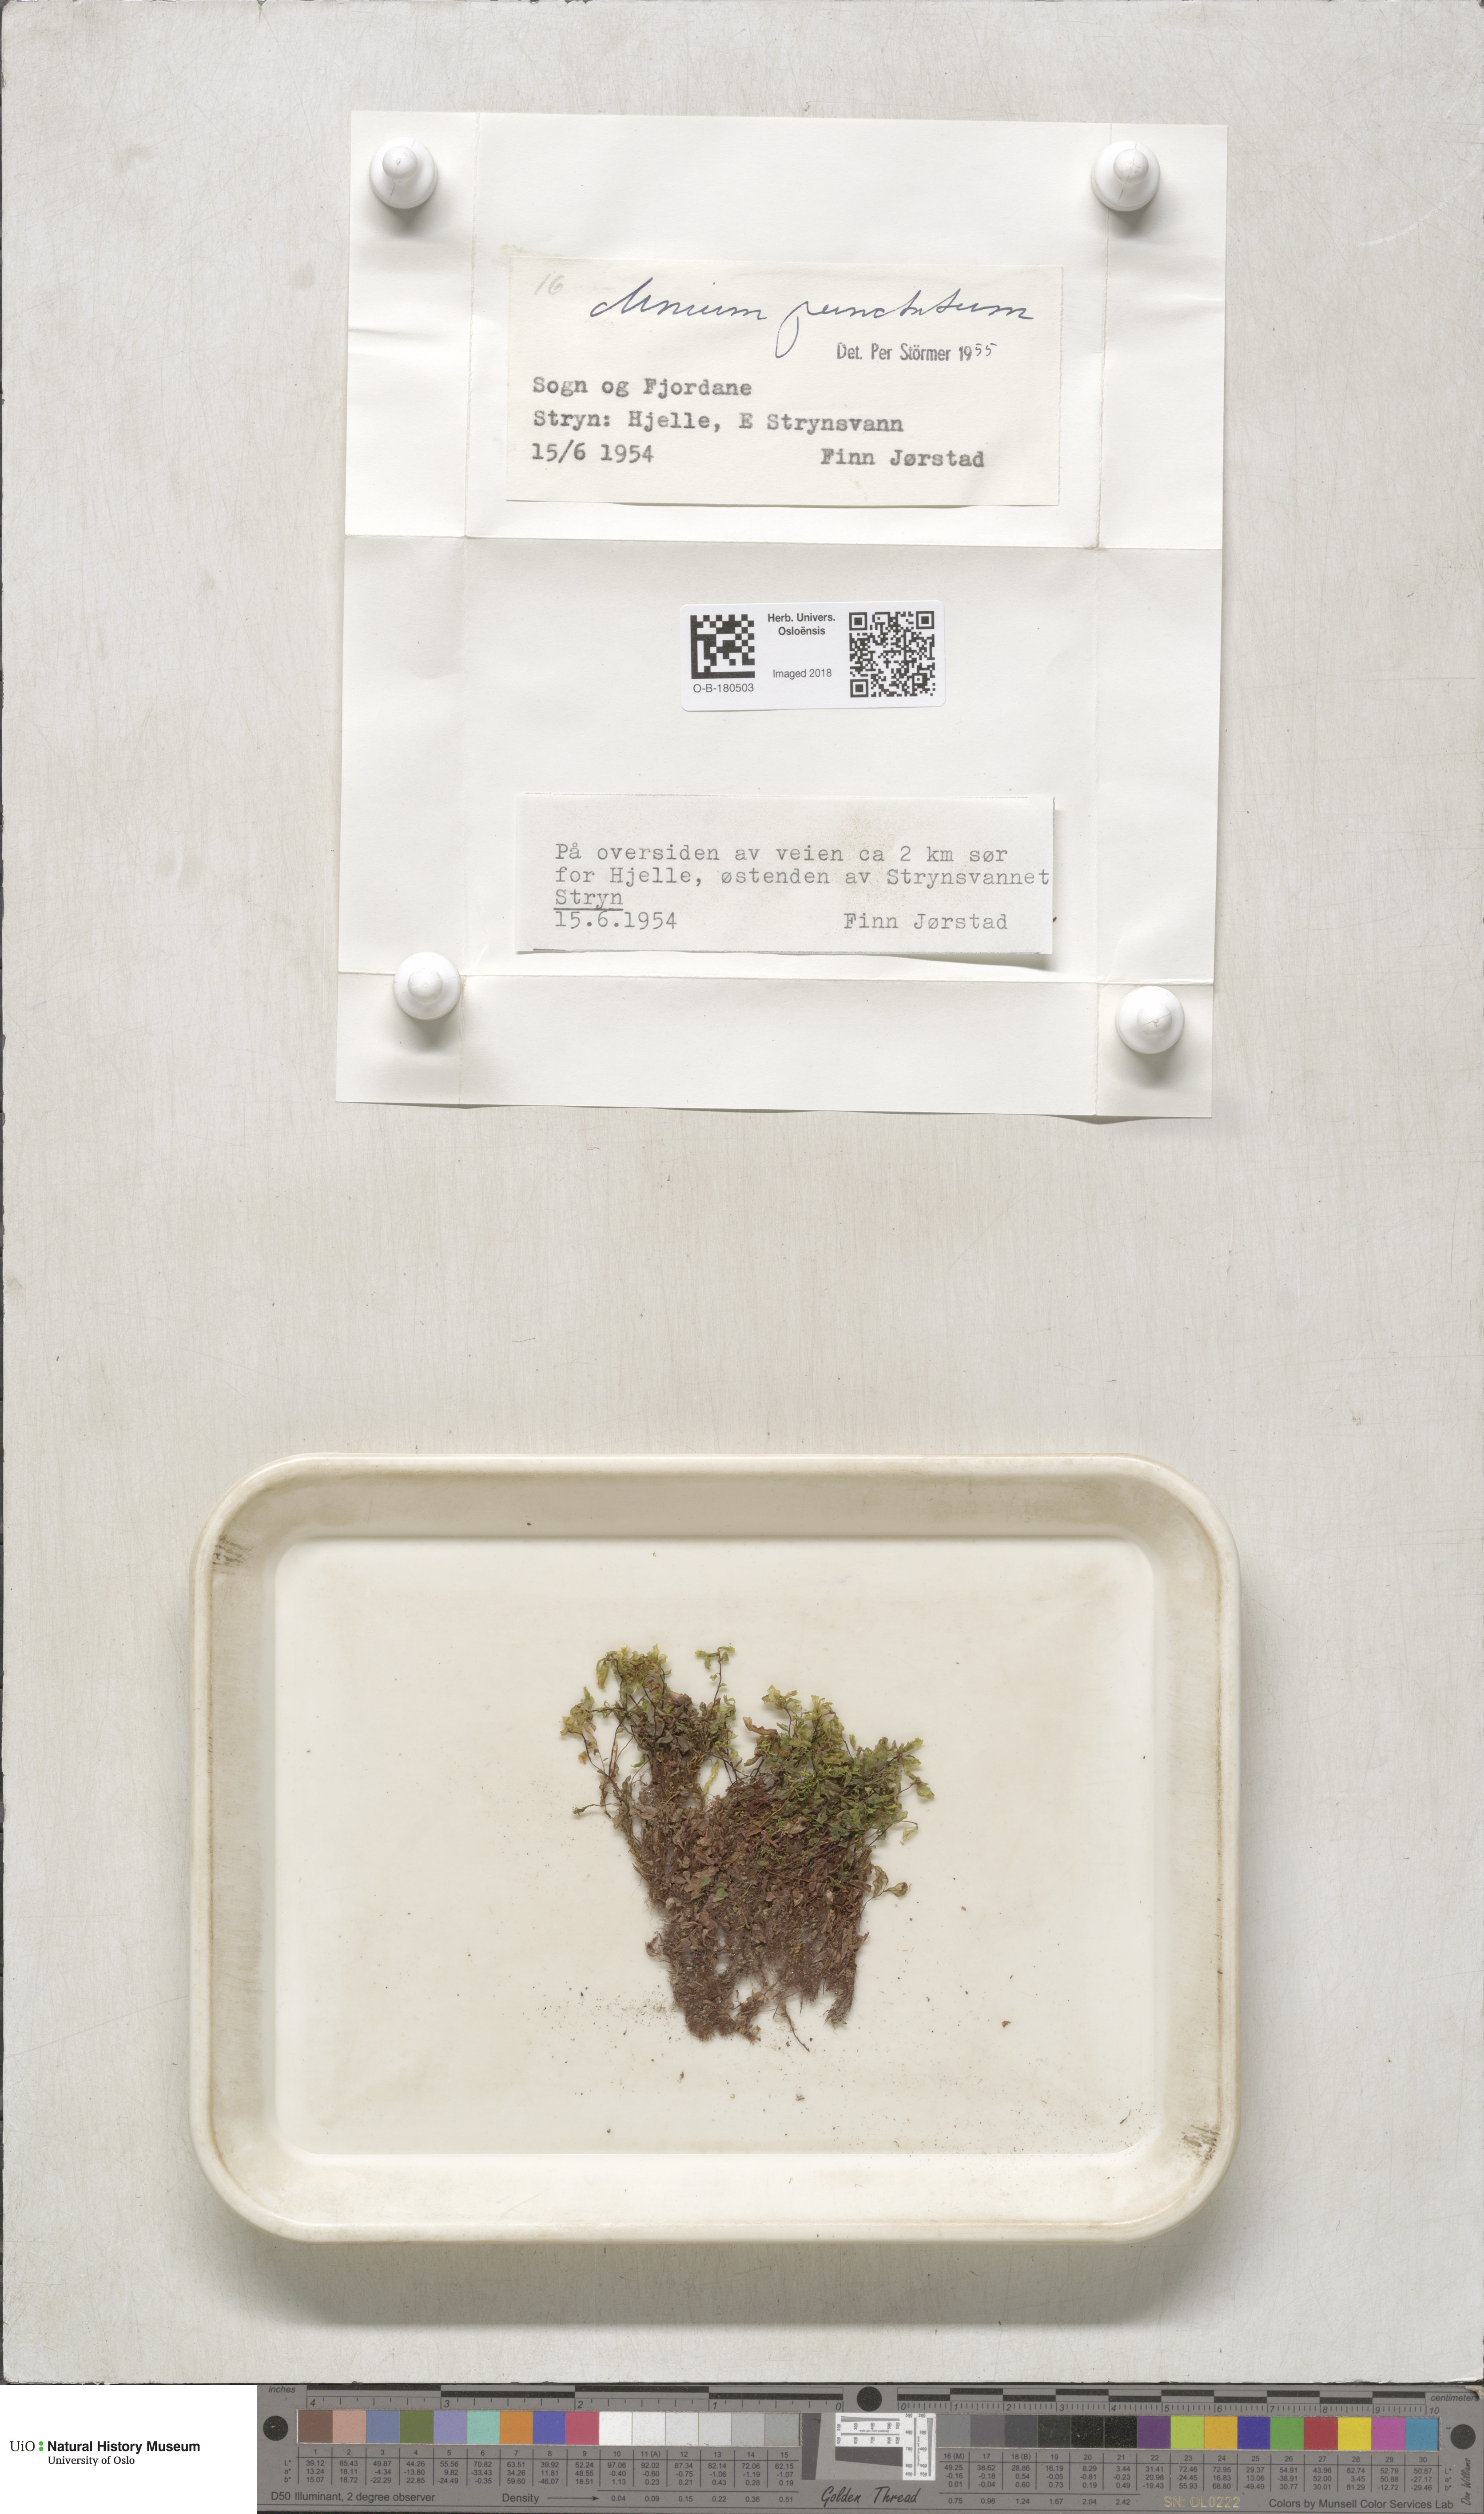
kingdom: Plantae
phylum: Bryophyta
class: Bryopsida
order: Bryales
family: Mniaceae
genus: Rhizomnium
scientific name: Rhizomnium punctatum
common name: Dotted leafy moss
